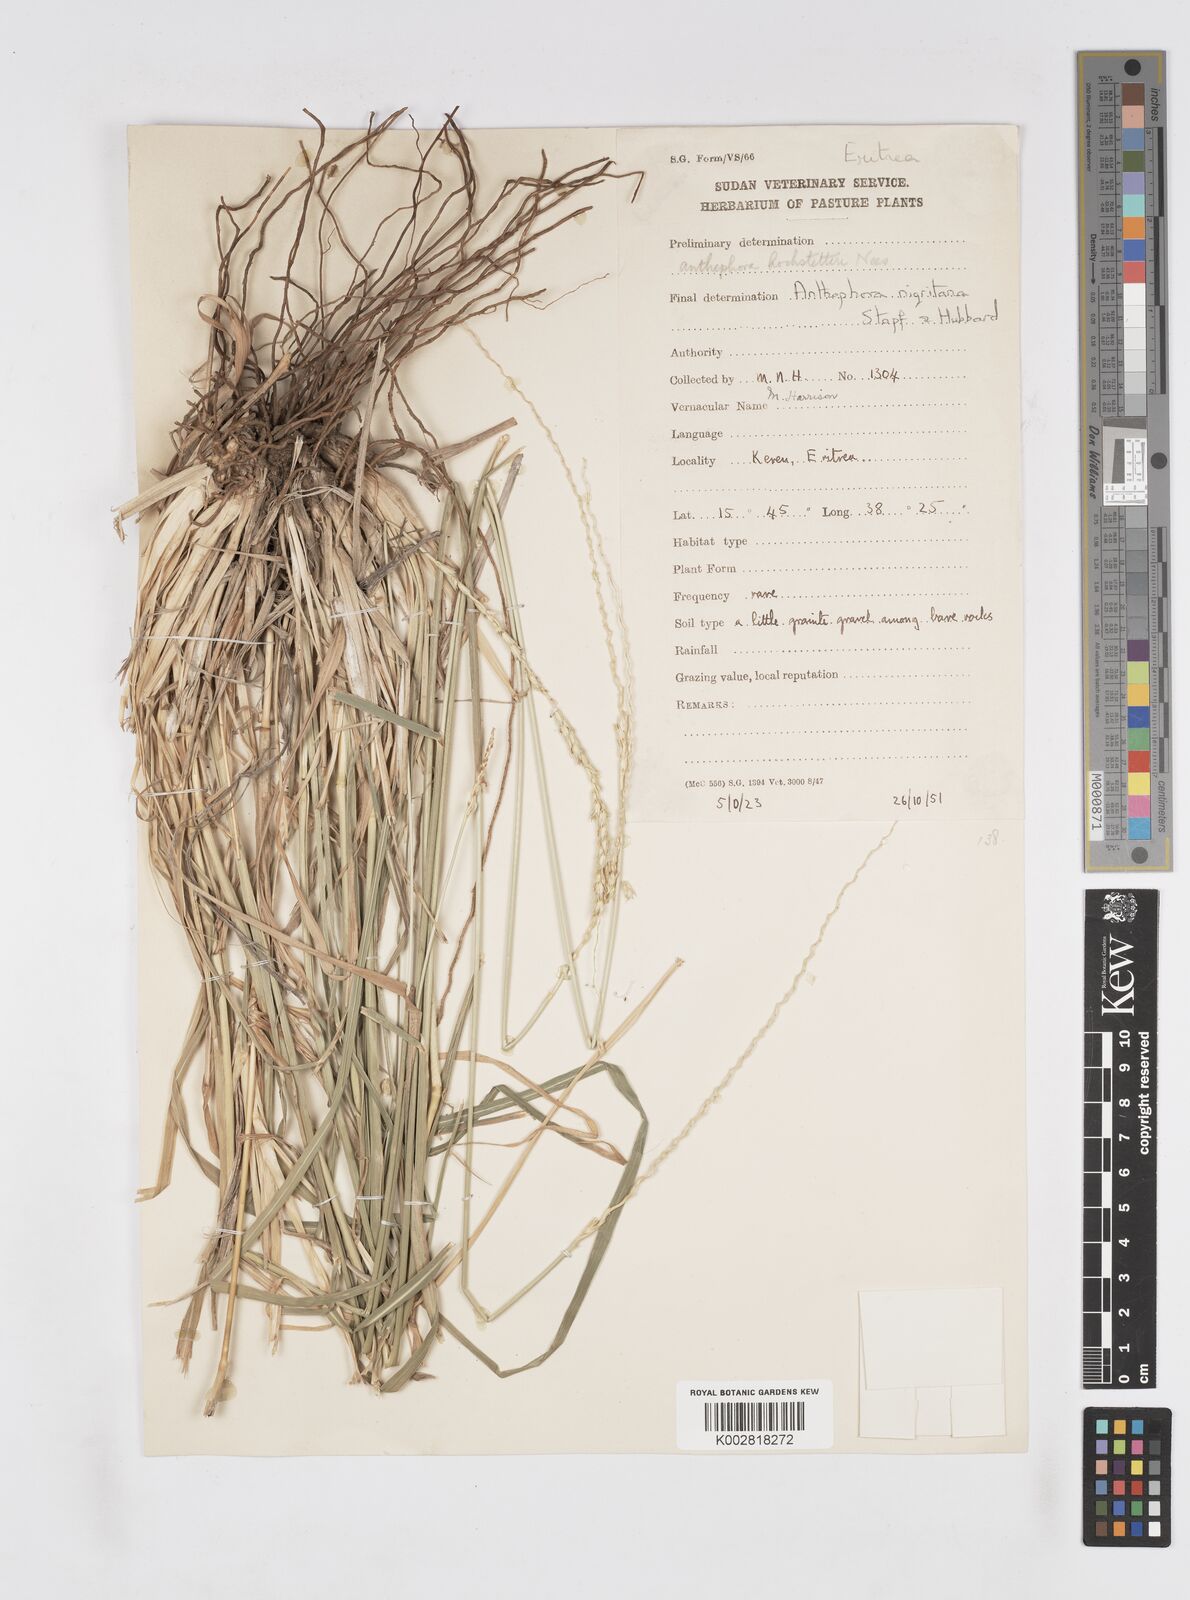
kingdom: Plantae
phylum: Tracheophyta
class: Liliopsida
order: Poales
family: Poaceae
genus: Anthephora
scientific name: Anthephora nigritana
